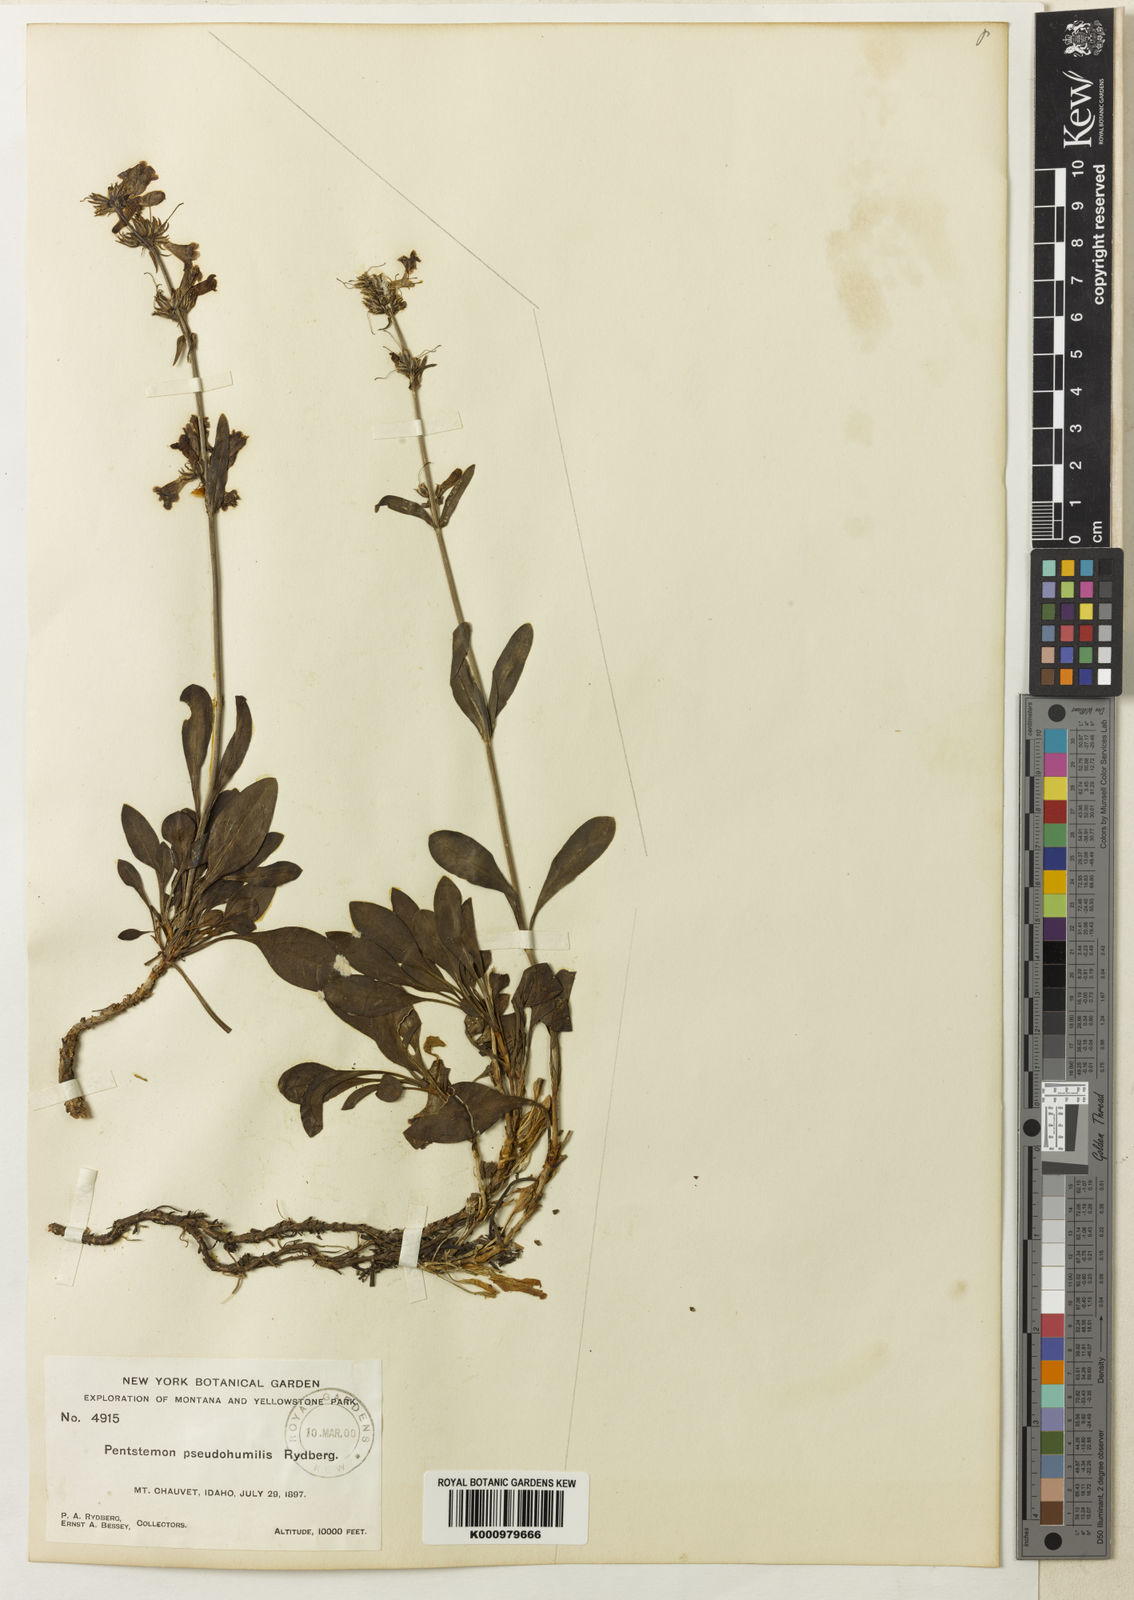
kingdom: Plantae
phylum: Tracheophyta
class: Magnoliopsida
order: Lamiales
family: Plantaginaceae
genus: Penstemon
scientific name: Penstemon
